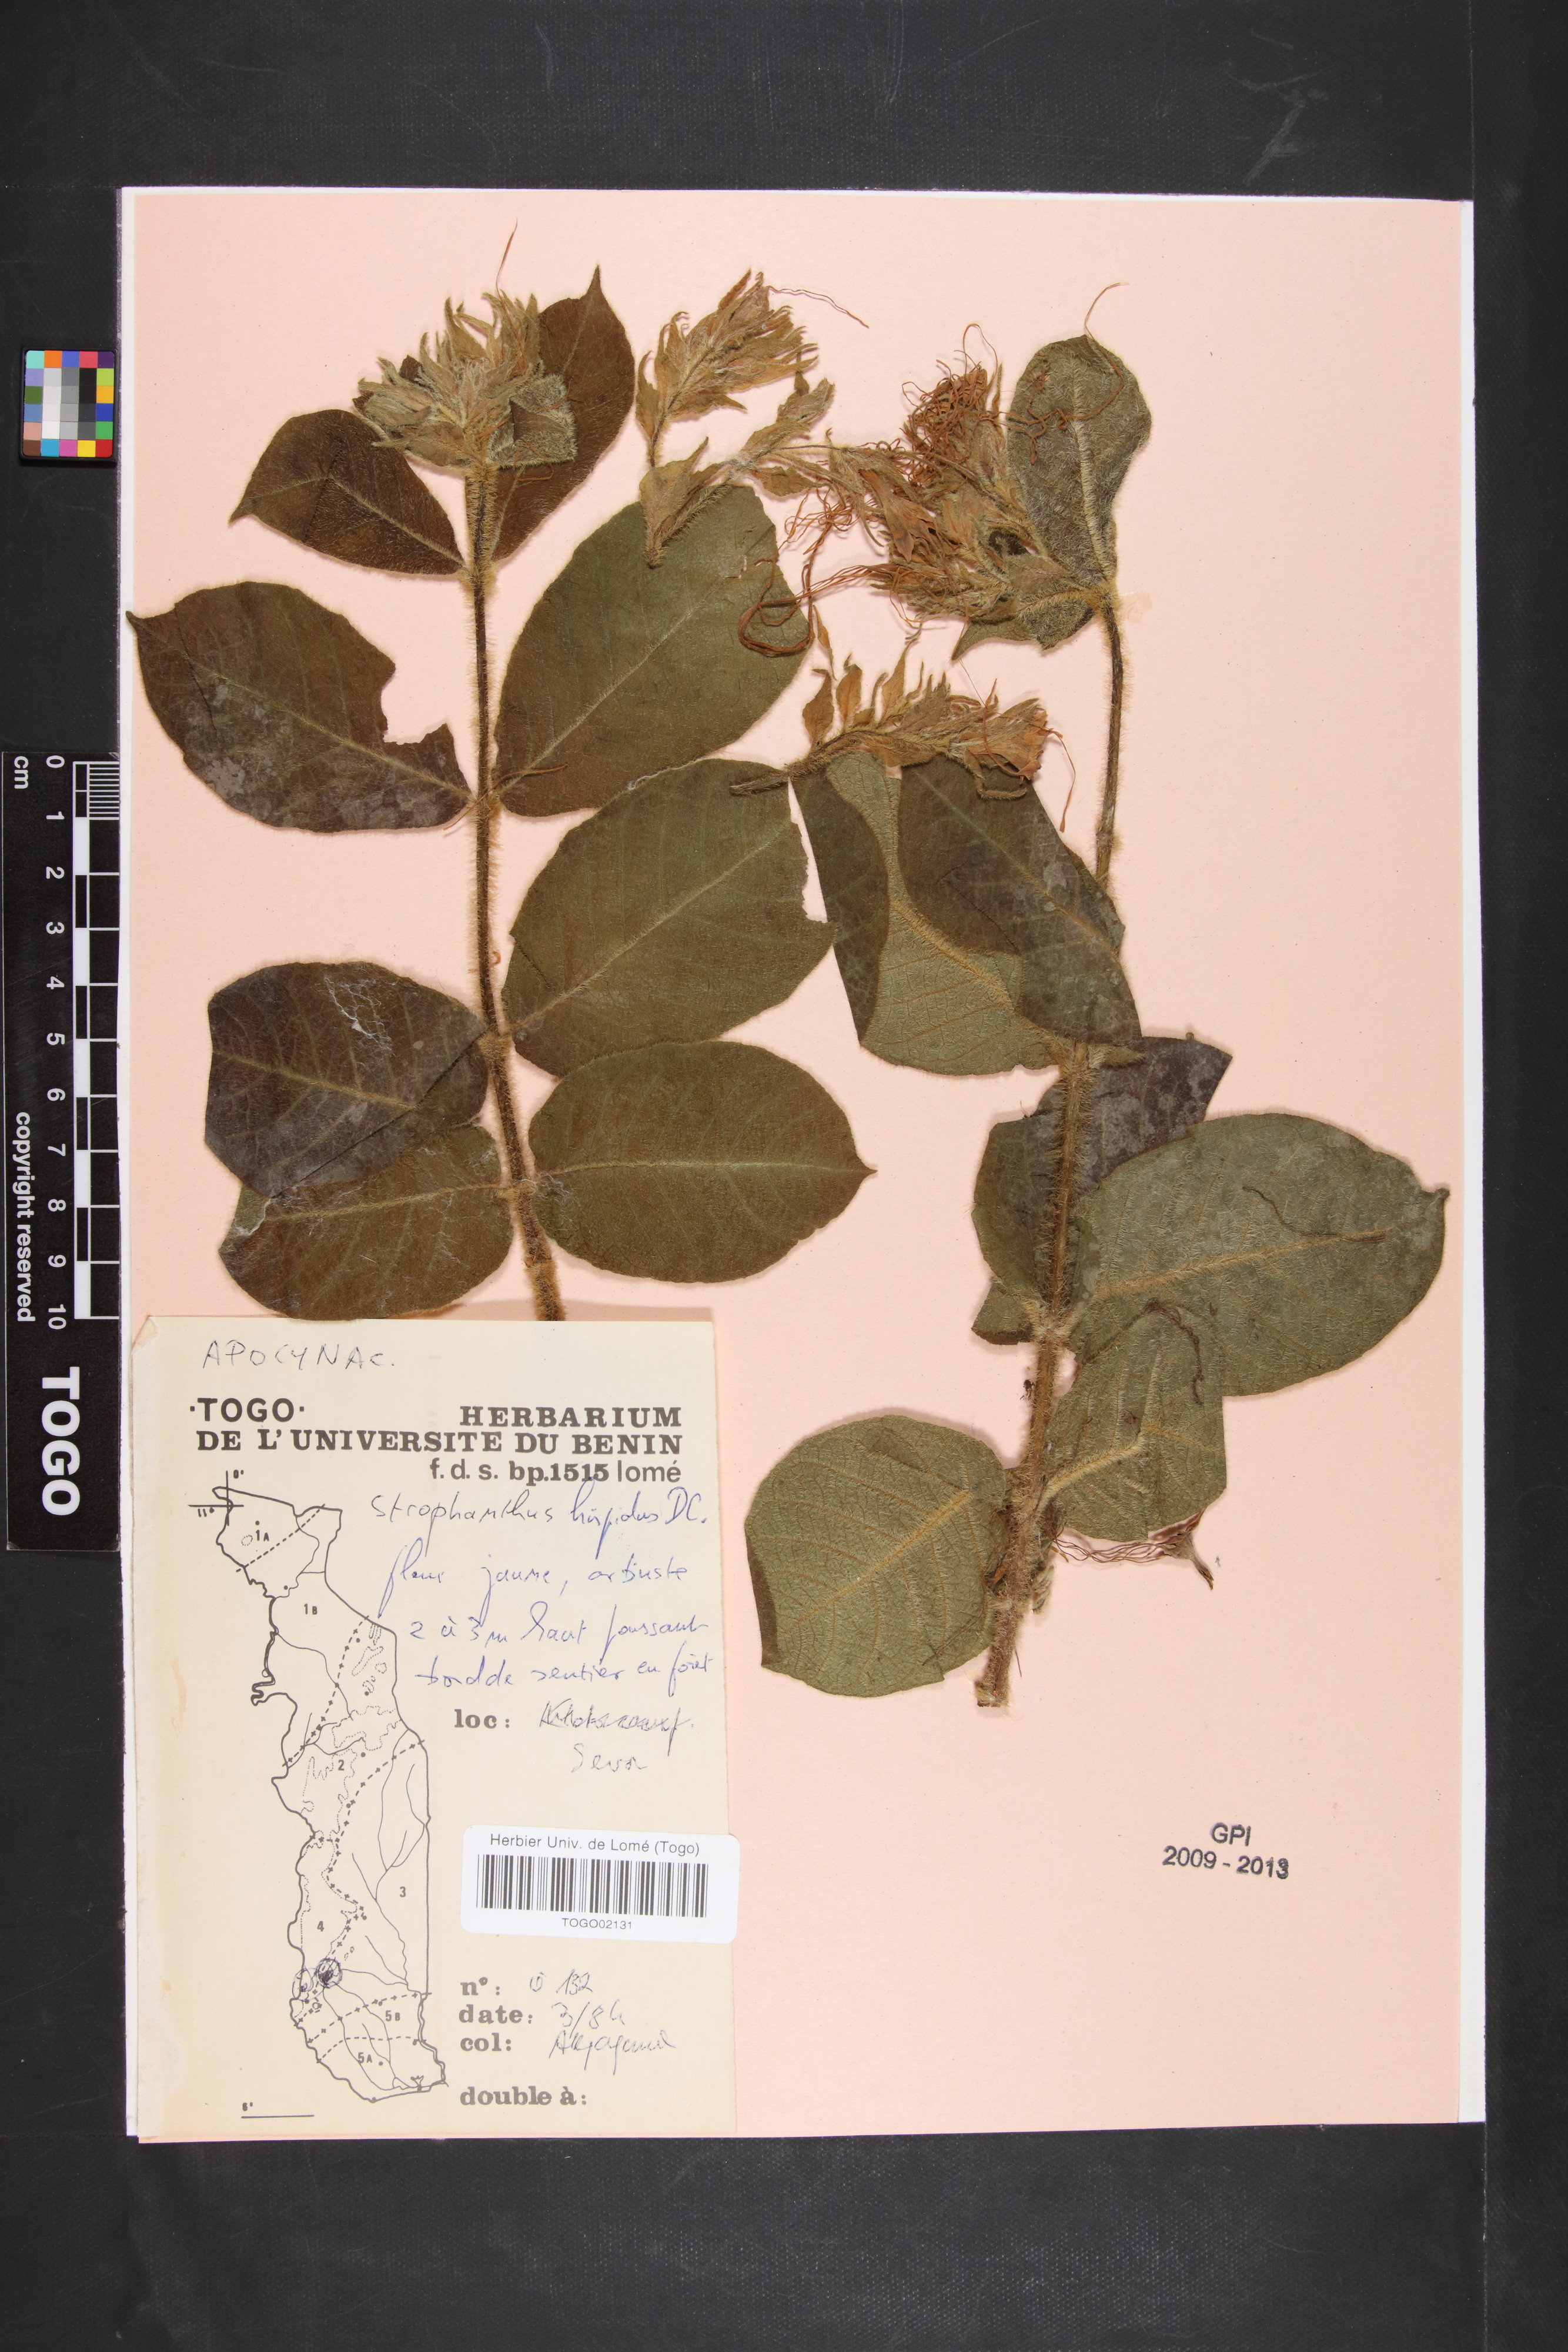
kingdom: Plantae
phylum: Tracheophyta
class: Magnoliopsida
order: Gentianales
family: Apocynaceae
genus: Strophanthus
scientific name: Strophanthus hispidus
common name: Hairy strophanthus
